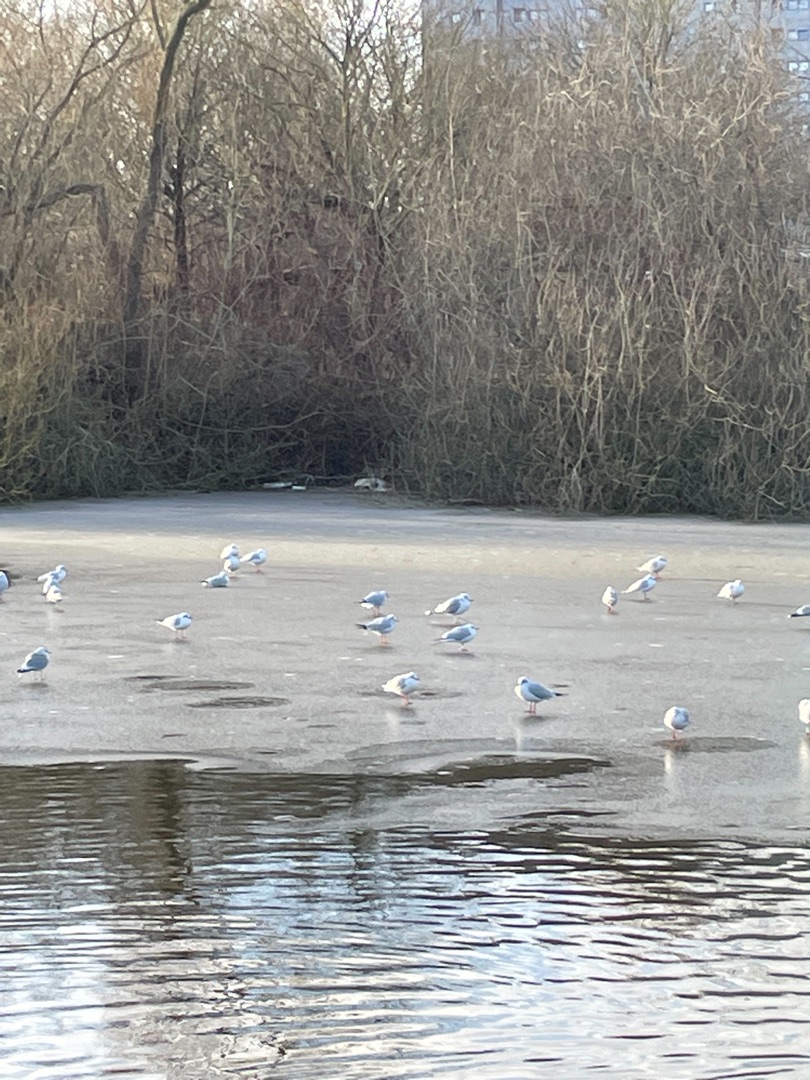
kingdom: Animalia
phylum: Chordata
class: Aves
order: Charadriiformes
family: Laridae
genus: Chroicocephalus
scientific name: Chroicocephalus ridibundus
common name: Hættemåge
